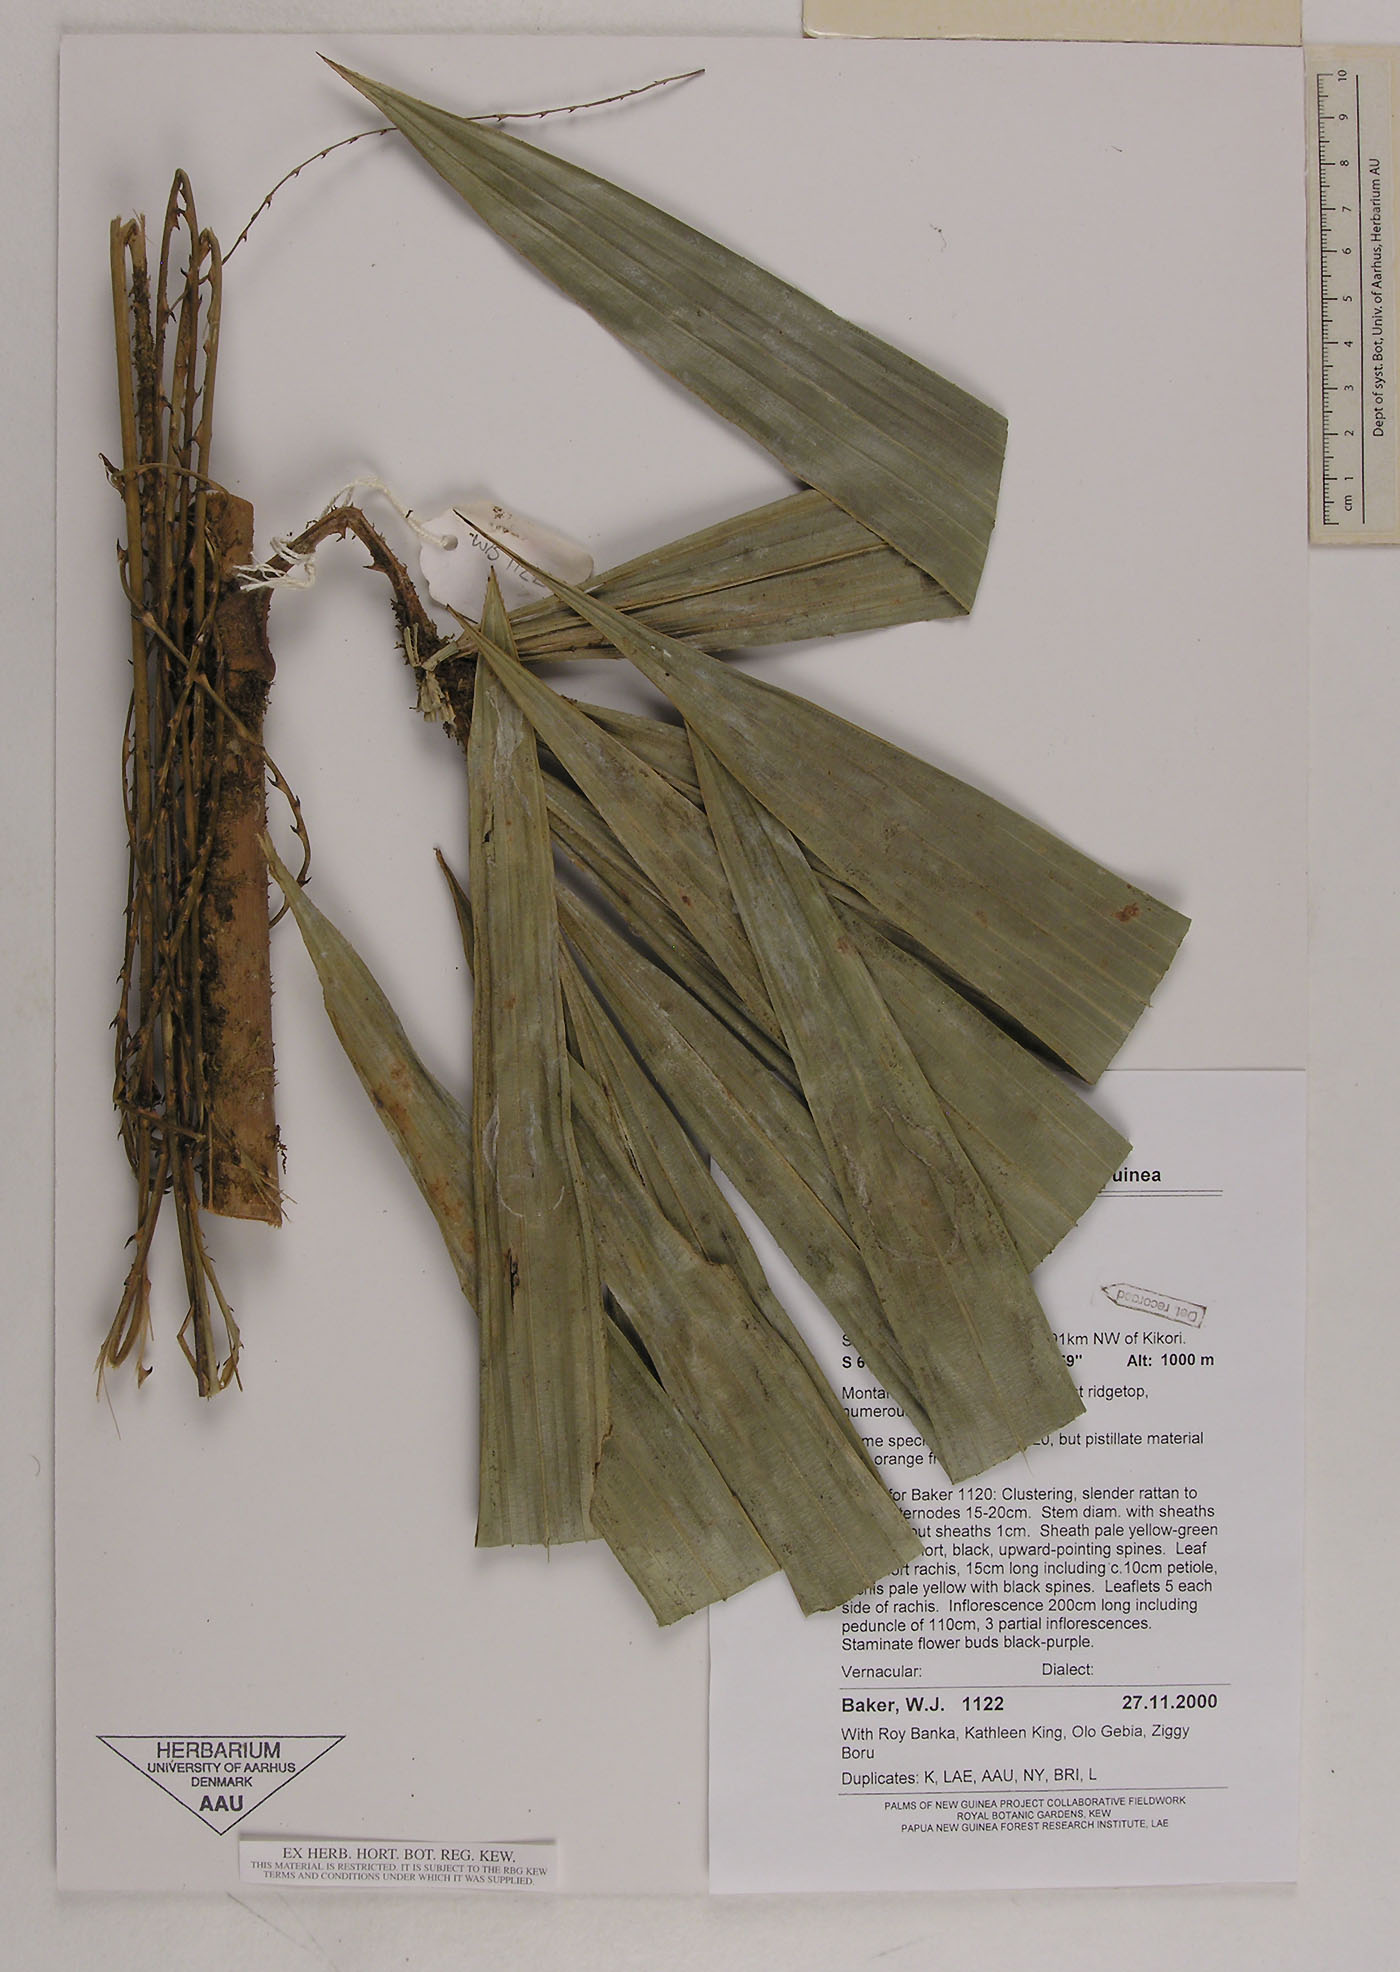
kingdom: Plantae
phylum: Tracheophyta
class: Liliopsida
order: Arecales
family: Arecaceae
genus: Calamus
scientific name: Calamus oresbius
